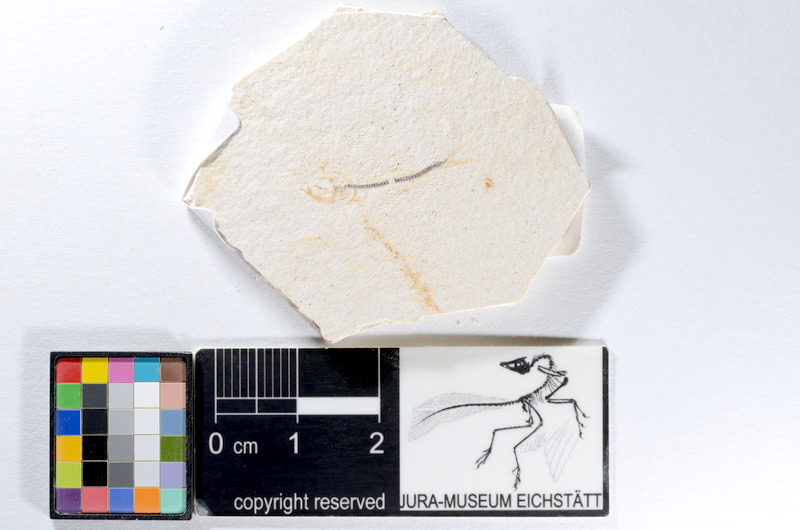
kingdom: Animalia
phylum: Chordata
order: Salmoniformes
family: Orthogonikleithridae
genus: Orthogonikleithrus
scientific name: Orthogonikleithrus hoelli
